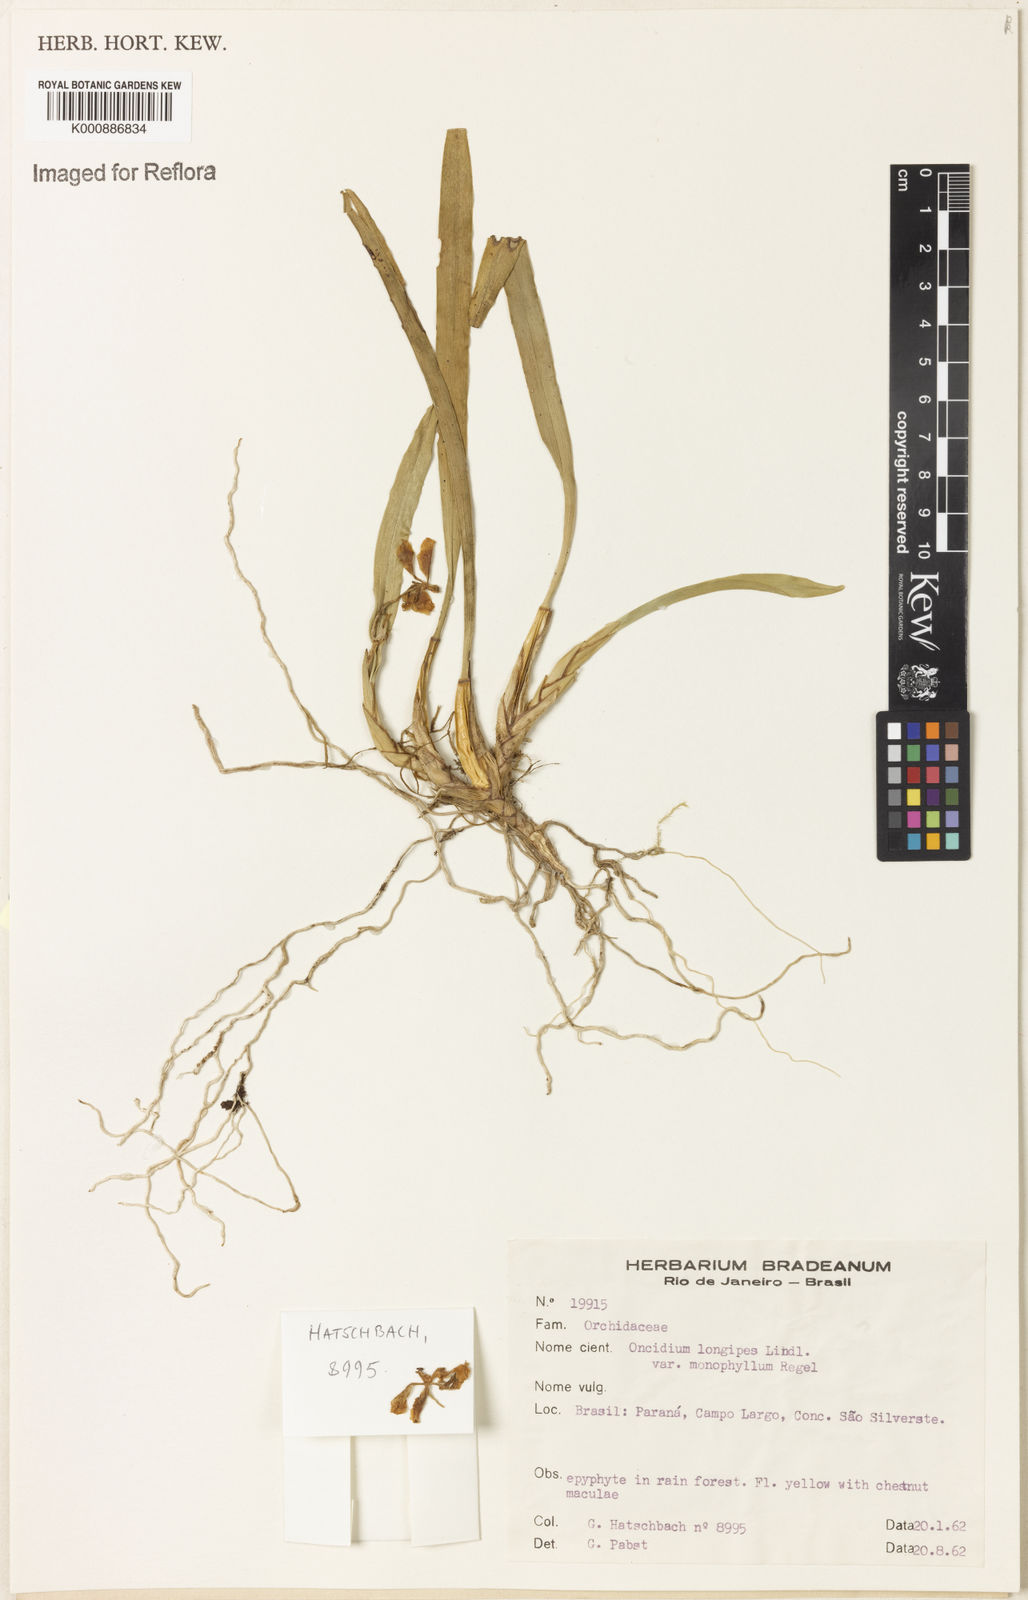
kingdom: Plantae
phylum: Tracheophyta
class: Liliopsida
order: Asparagales
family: Orchidaceae
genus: Gomesa
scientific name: Gomesa uniflora
